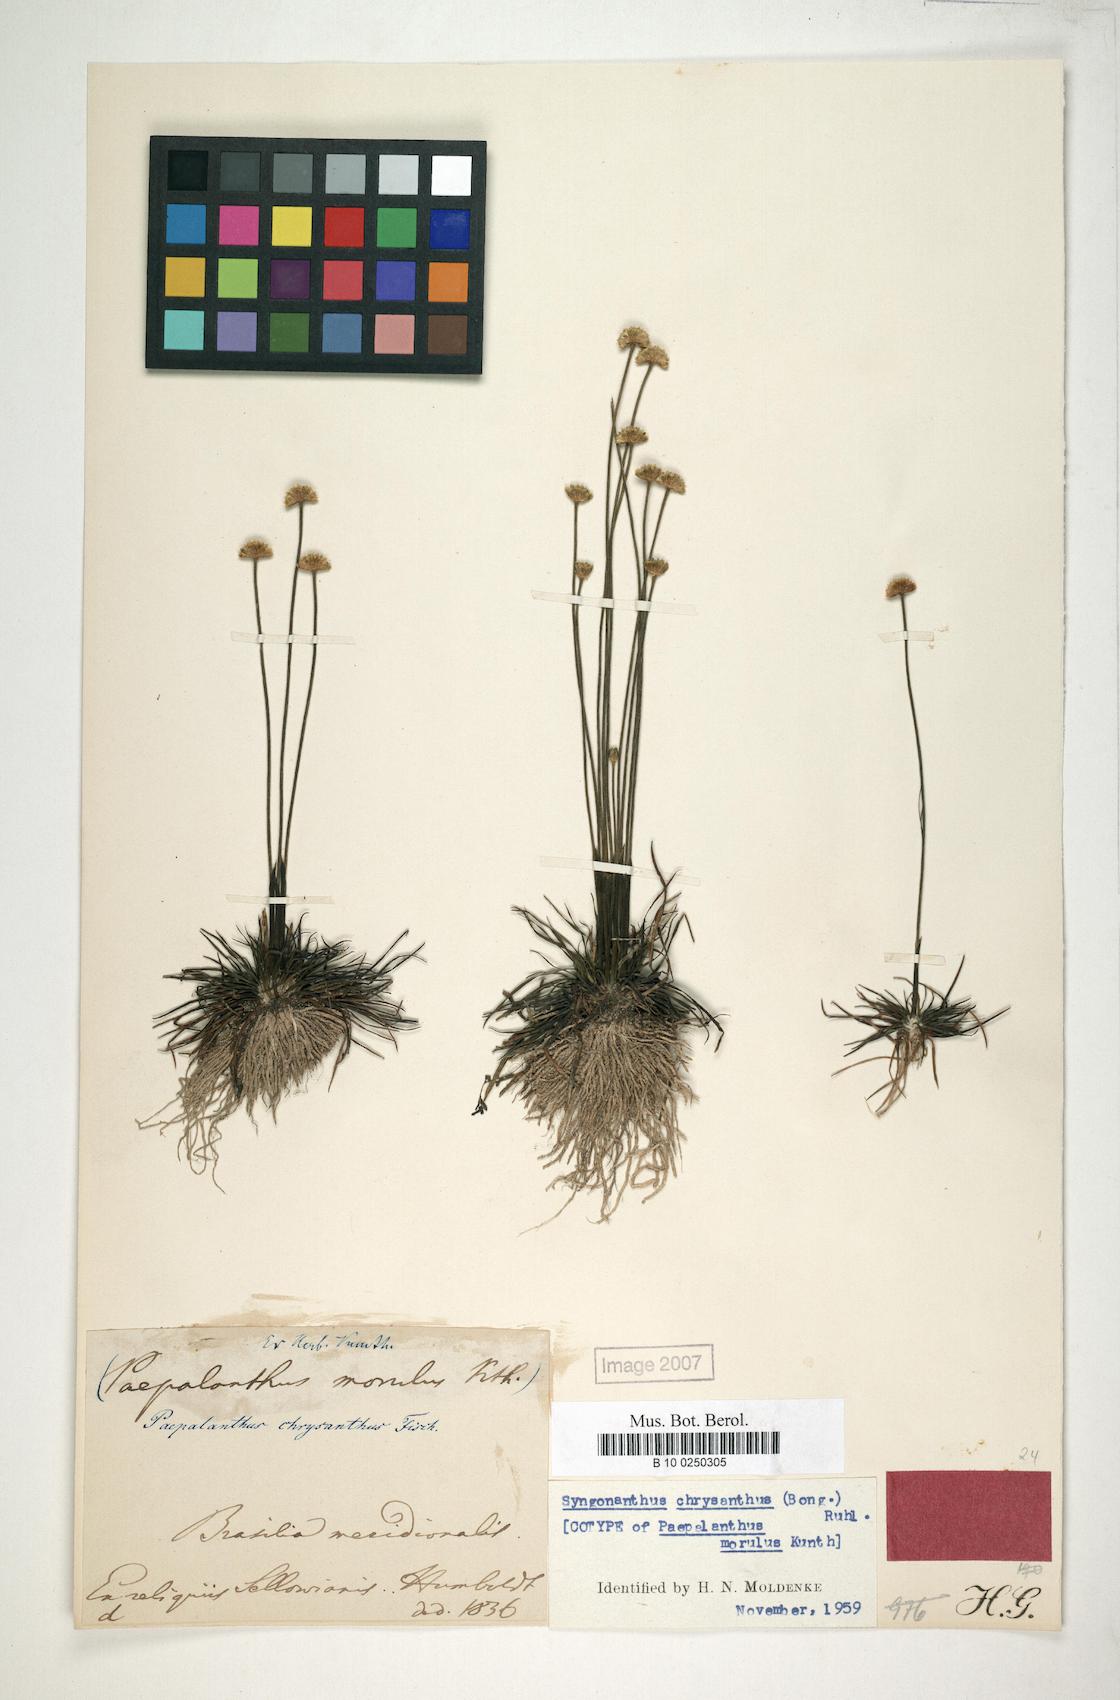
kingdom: Plantae
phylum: Tracheophyta
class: Liliopsida
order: Poales
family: Eriocaulaceae
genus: Syngonanthus
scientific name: Syngonanthus chrysanthus
